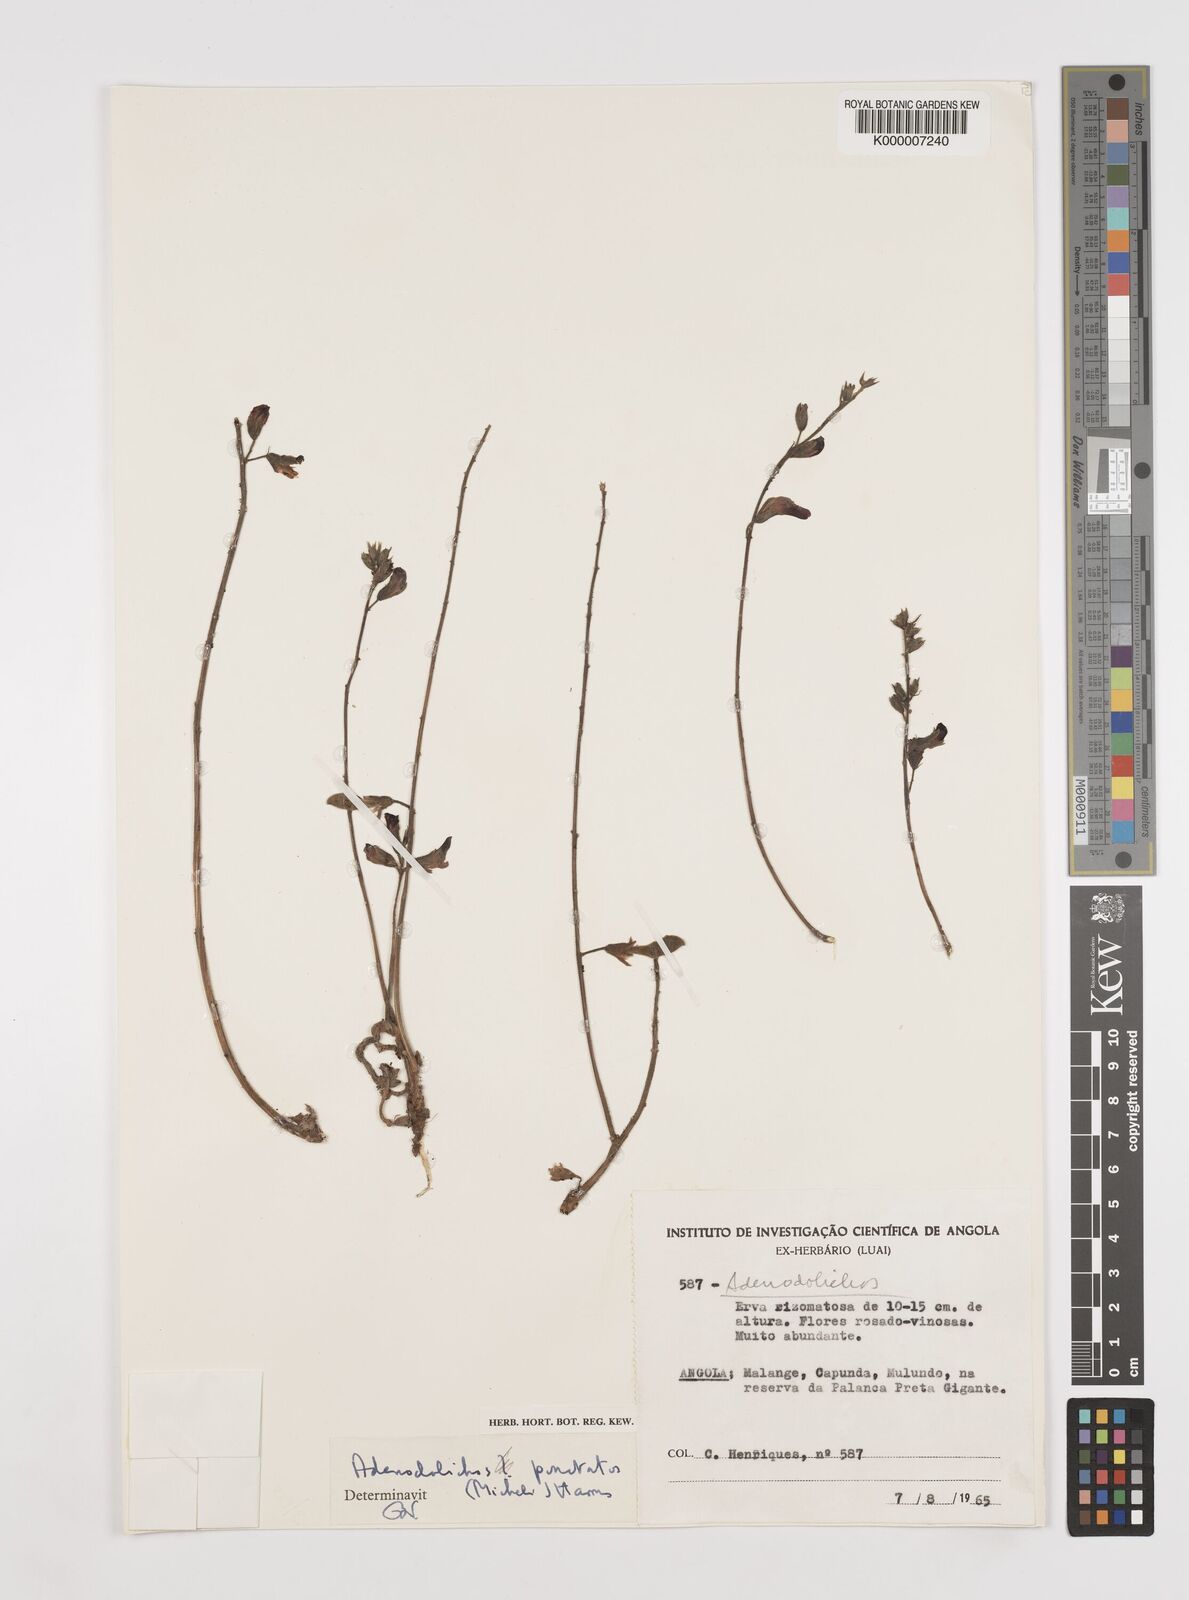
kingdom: Plantae
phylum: Tracheophyta
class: Magnoliopsida
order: Fabales
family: Fabaceae
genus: Adenodolichos
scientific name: Adenodolichos punctatus
